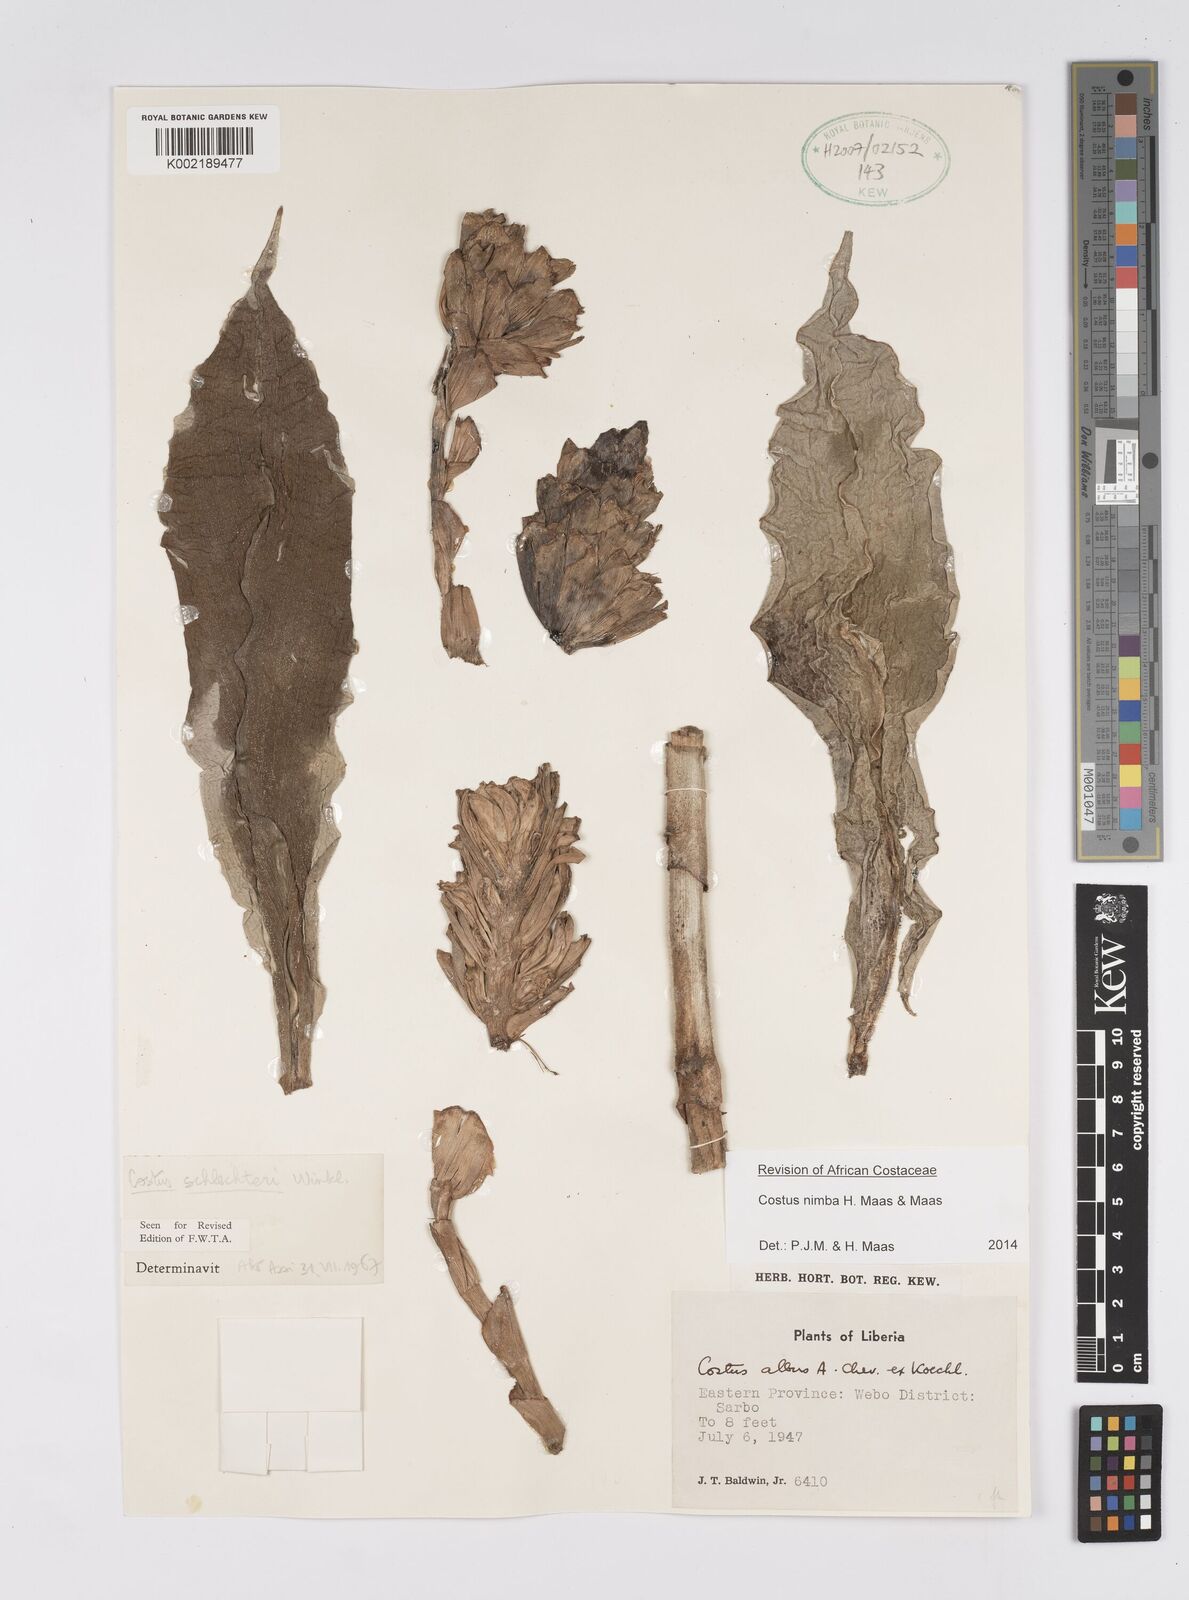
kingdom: Plantae
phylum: Tracheophyta
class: Liliopsida
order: Zingiberales
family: Costaceae
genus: Costus
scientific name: Costus nimba
